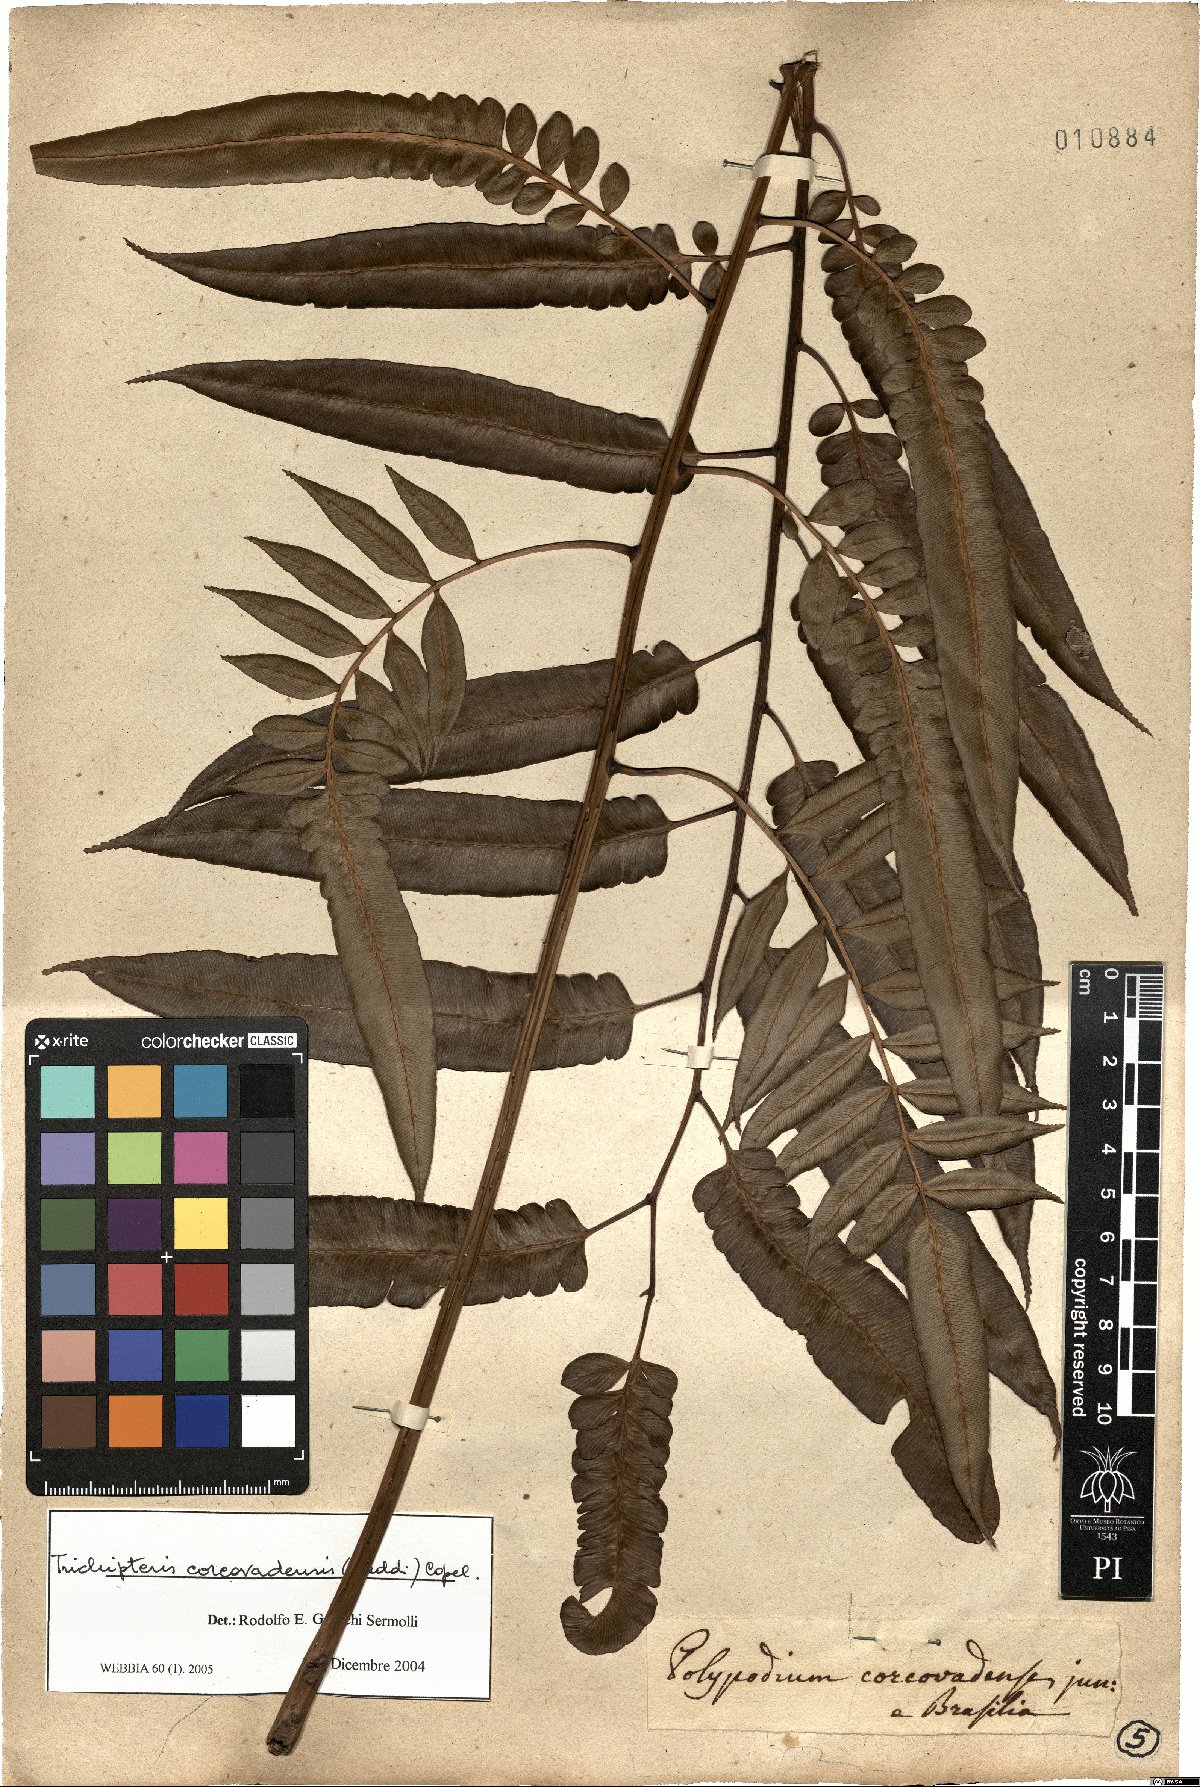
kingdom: Plantae
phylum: Tracheophyta
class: Polypodiopsida
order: Cyatheales
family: Cyatheaceae
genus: Cyathea
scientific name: Cyathea corcovadensis
